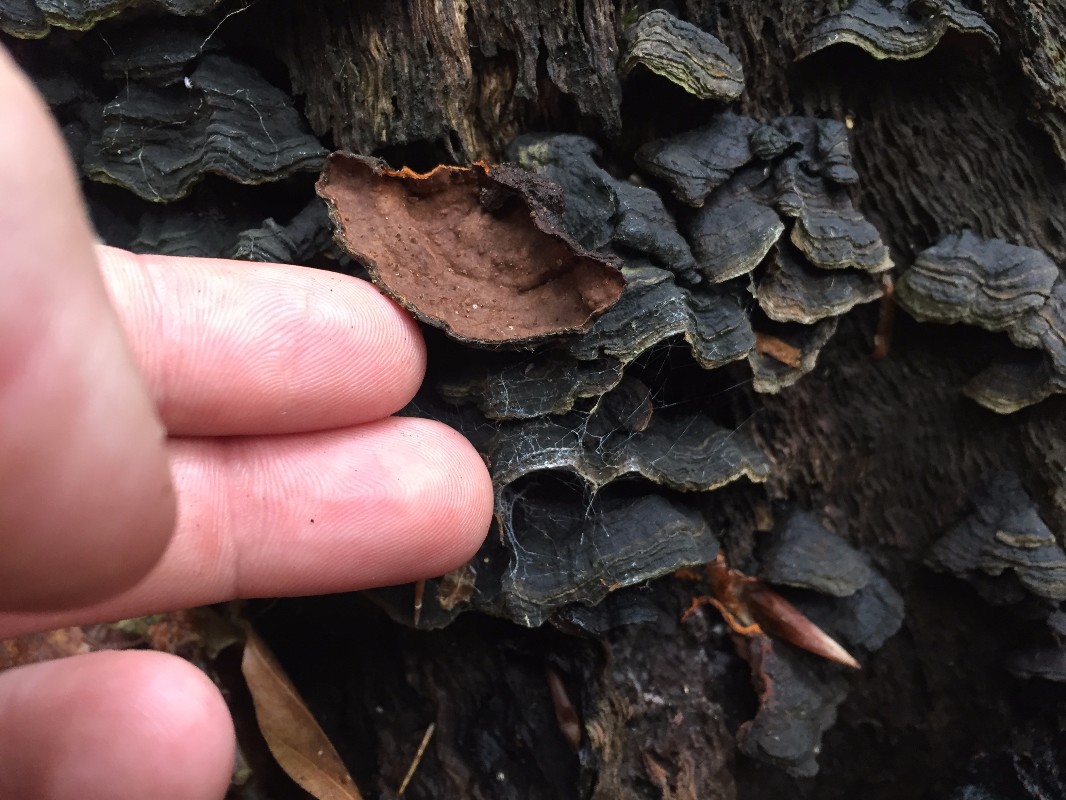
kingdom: Fungi
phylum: Basidiomycota
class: Agaricomycetes
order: Hymenochaetales
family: Hymenochaetaceae
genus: Hymenochaete
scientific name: Hymenochaete rubiginosa
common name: stiv ruslædersvamp
